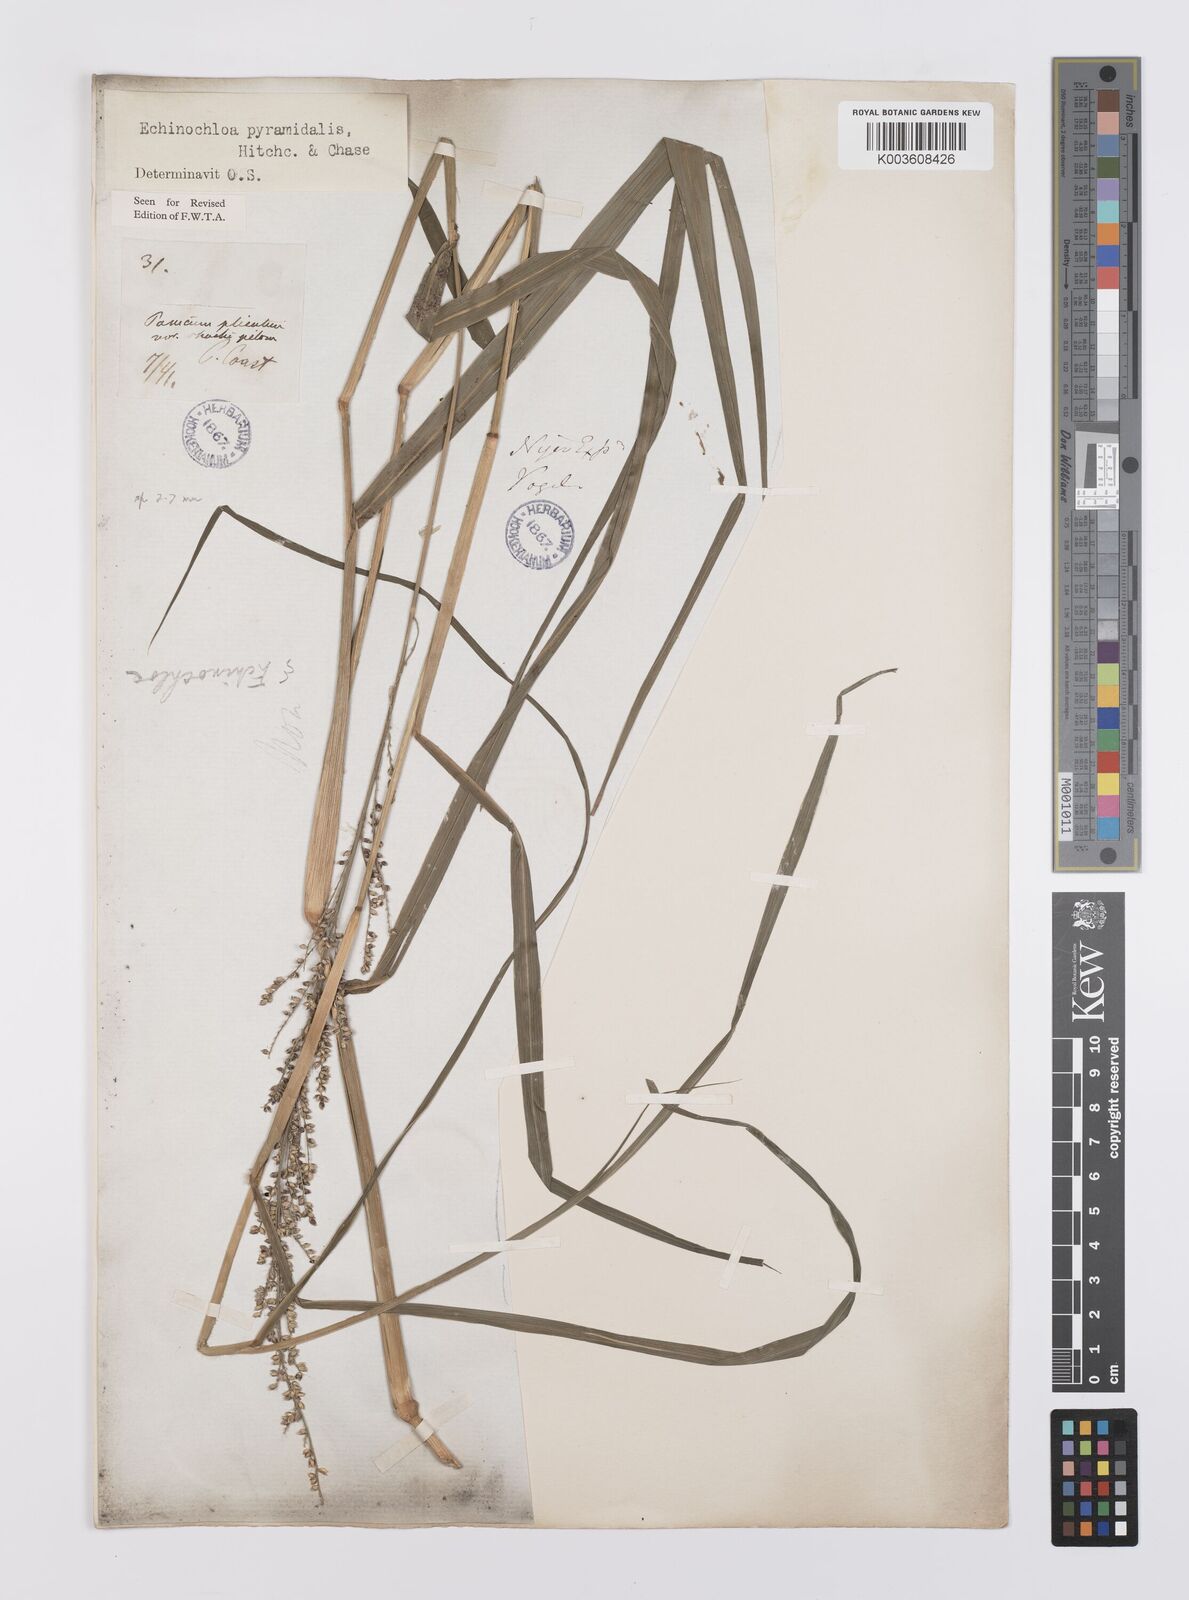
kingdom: Plantae
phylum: Tracheophyta
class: Liliopsida
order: Poales
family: Poaceae
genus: Echinochloa
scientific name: Echinochloa pyramidalis
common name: Antelope grass
